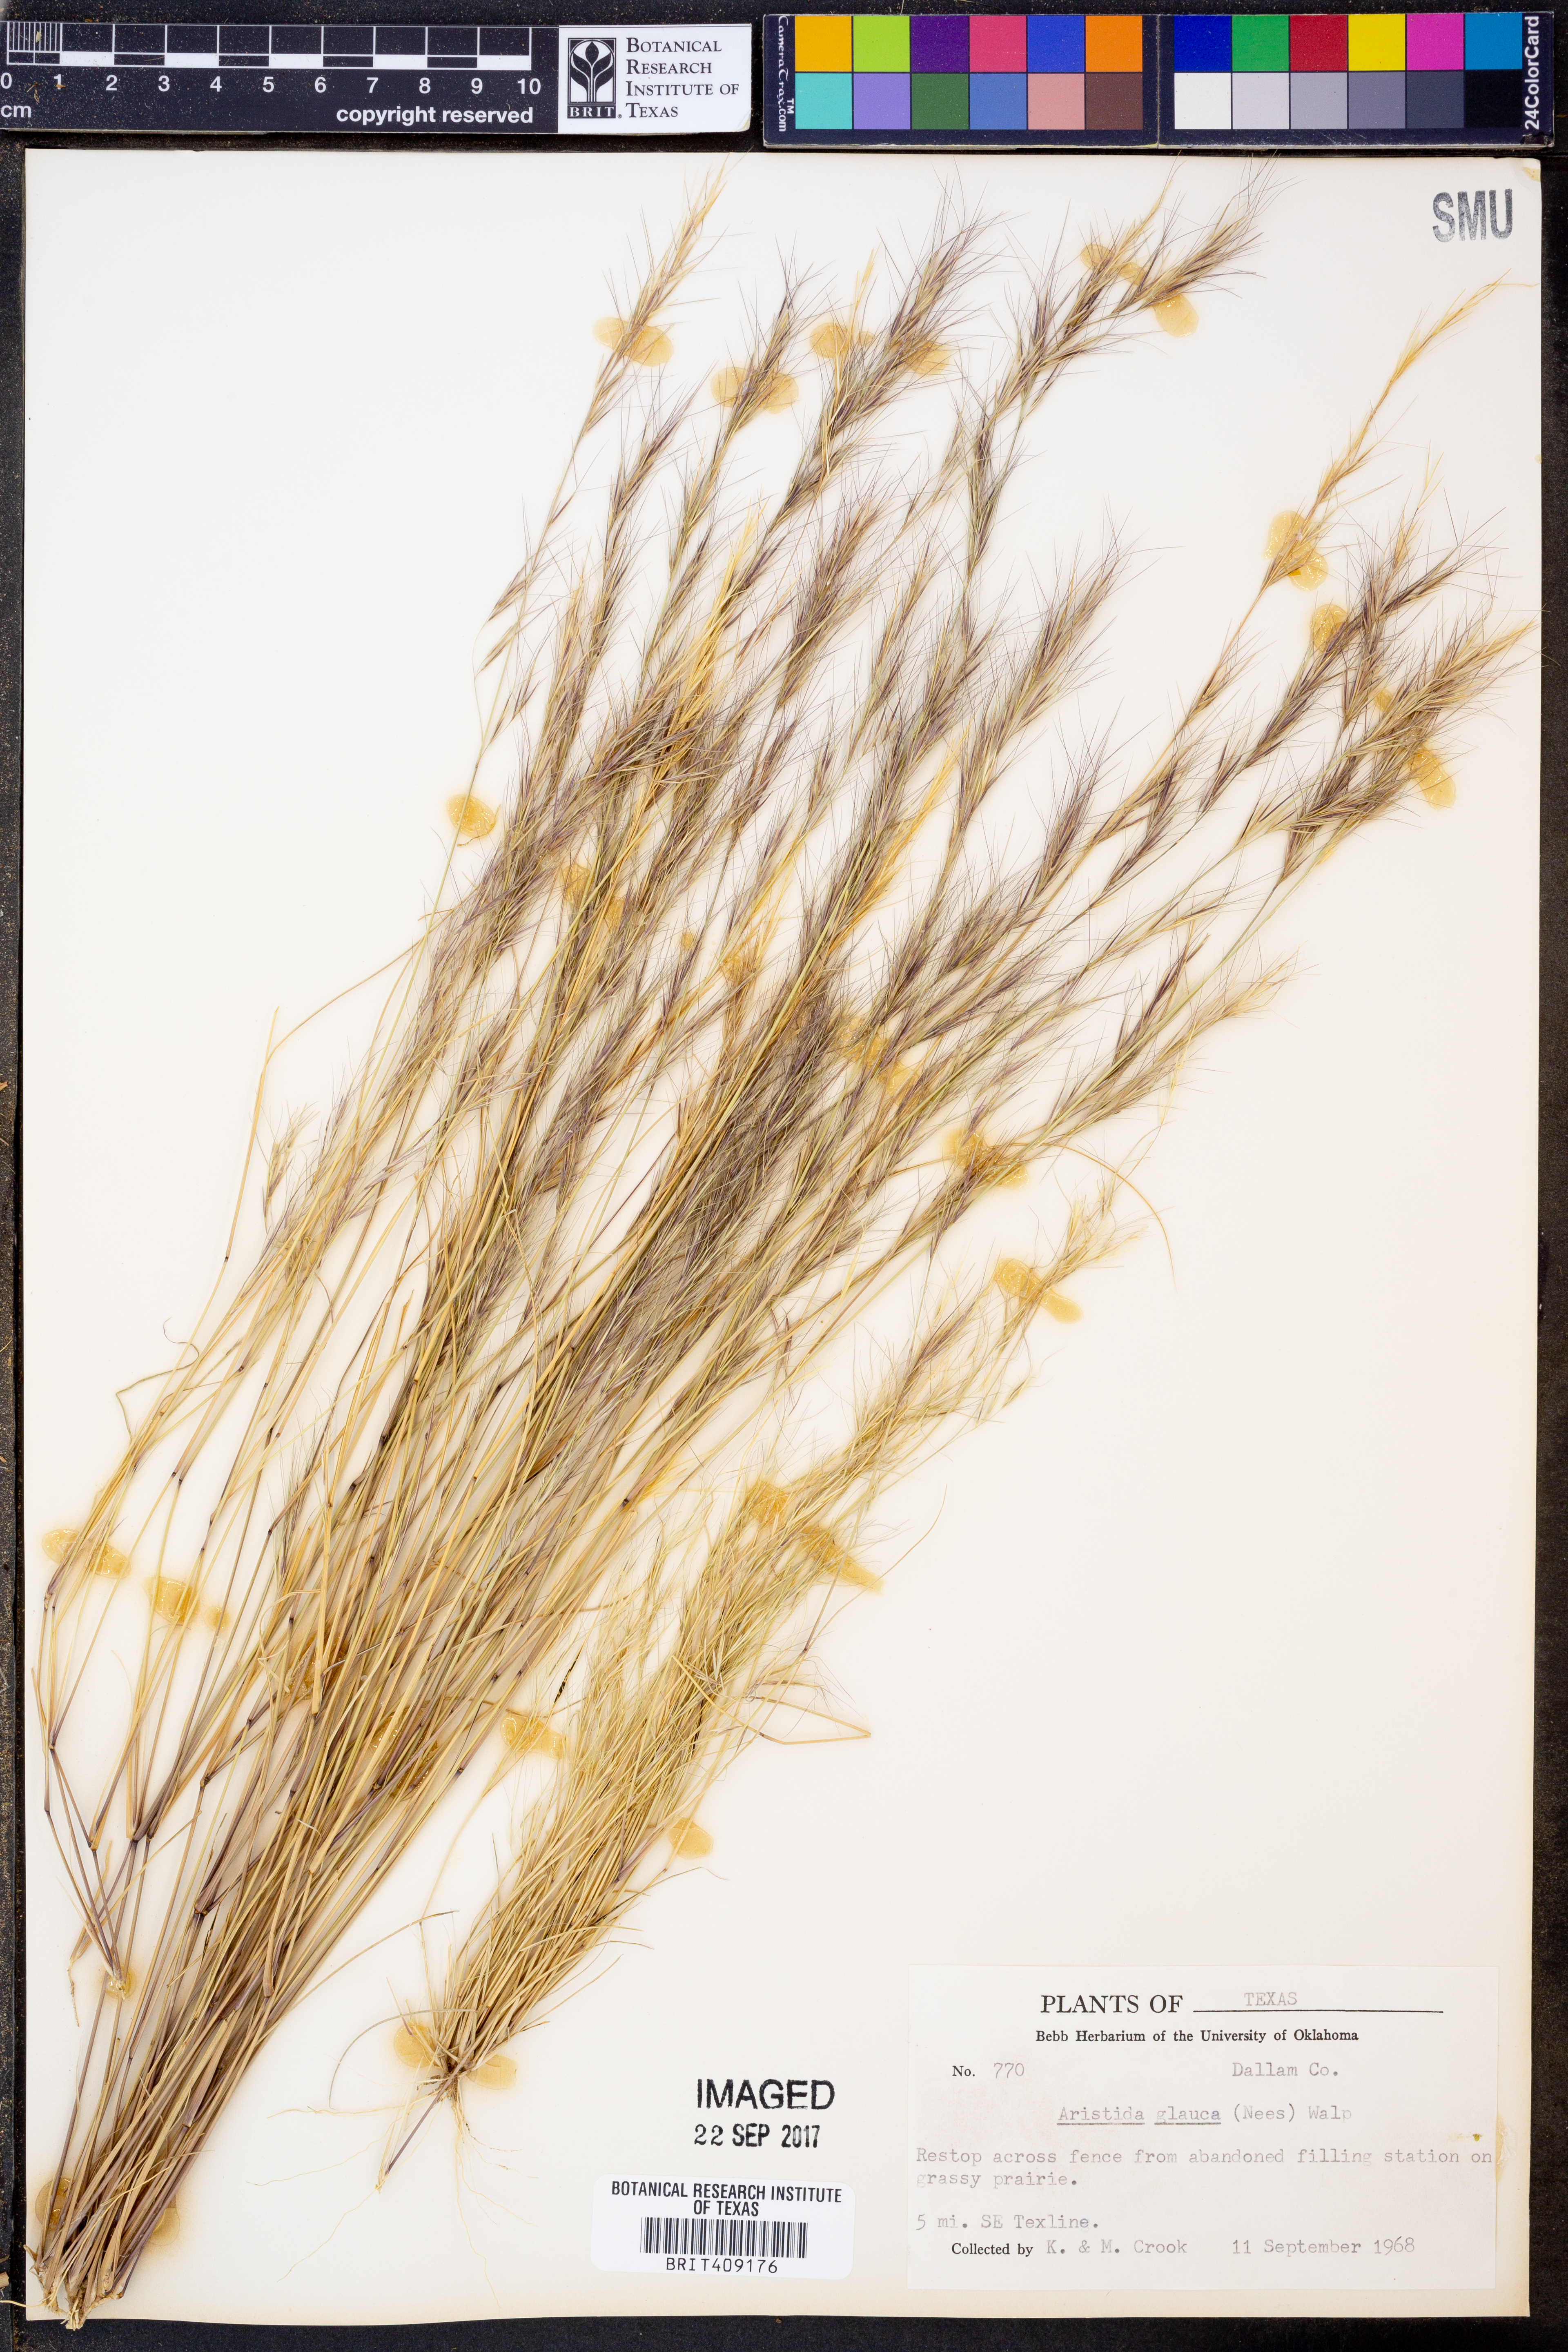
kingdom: Plantae
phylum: Tracheophyta
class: Liliopsida
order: Poales
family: Poaceae
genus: Aristida
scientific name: Aristida glauca
